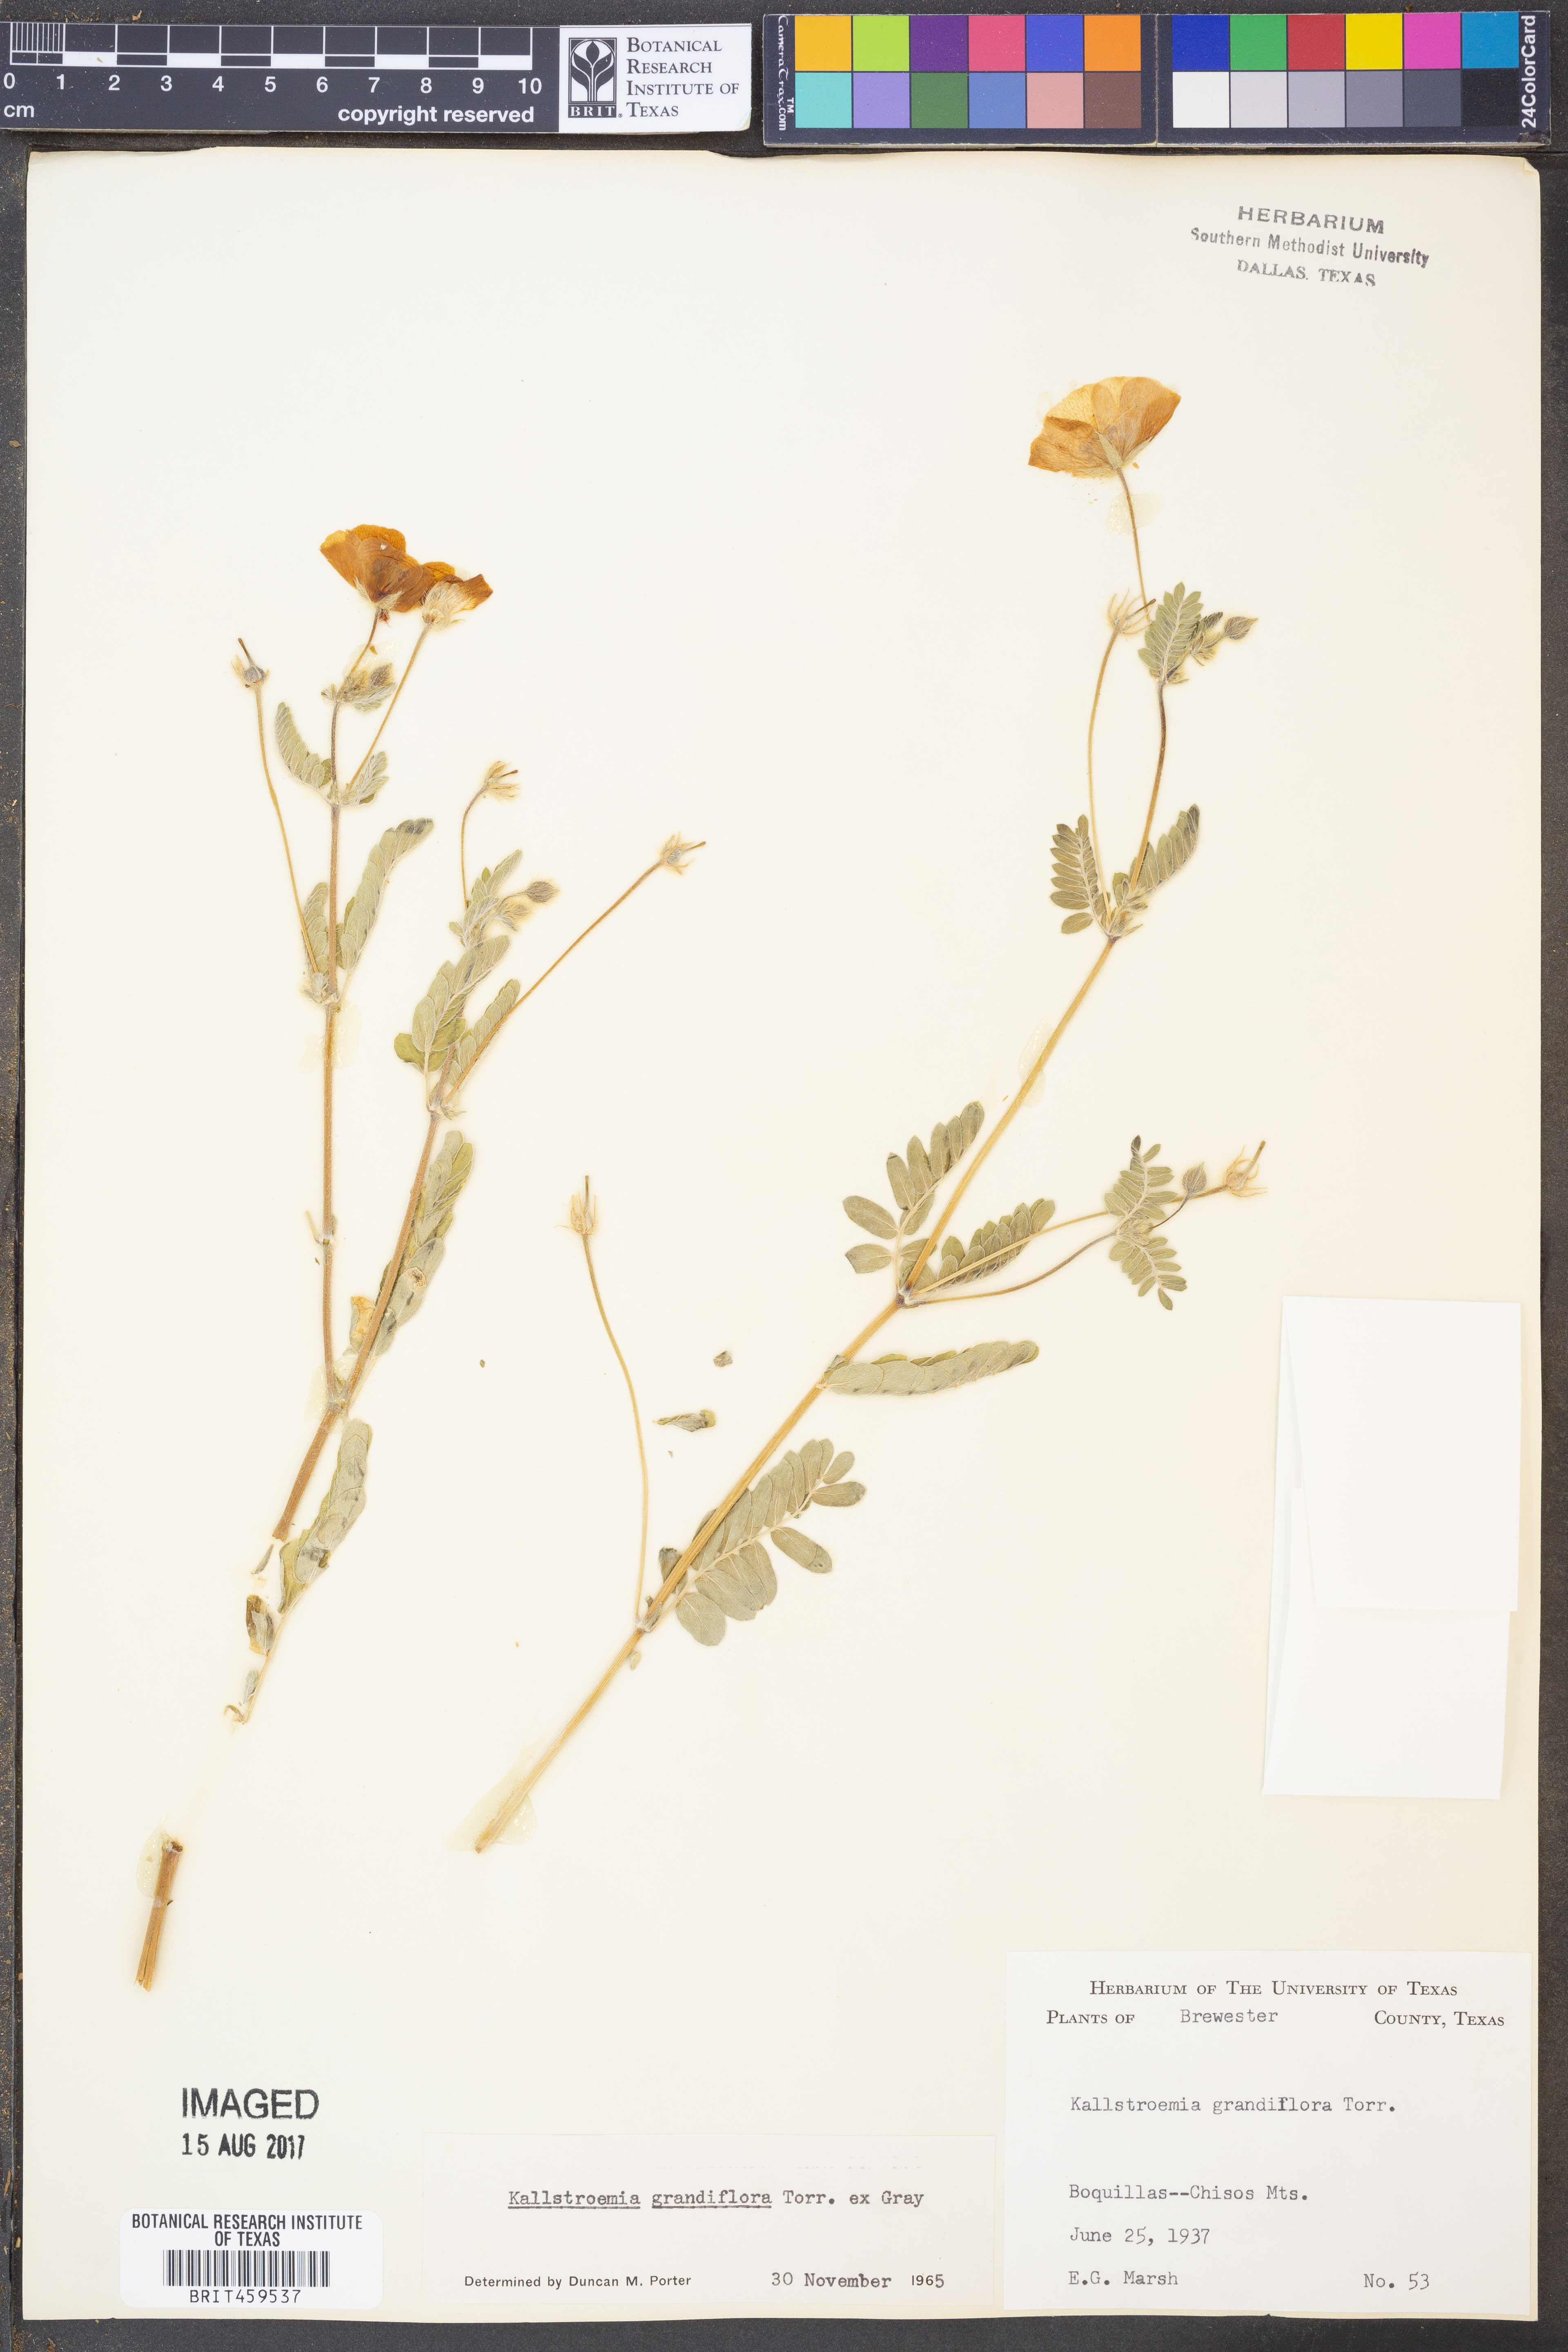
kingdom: Plantae
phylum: Tracheophyta
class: Magnoliopsida
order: Zygophyllales
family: Zygophyllaceae
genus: Kallstroemia
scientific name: Kallstroemia grandiflora
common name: Arizona-poppy
